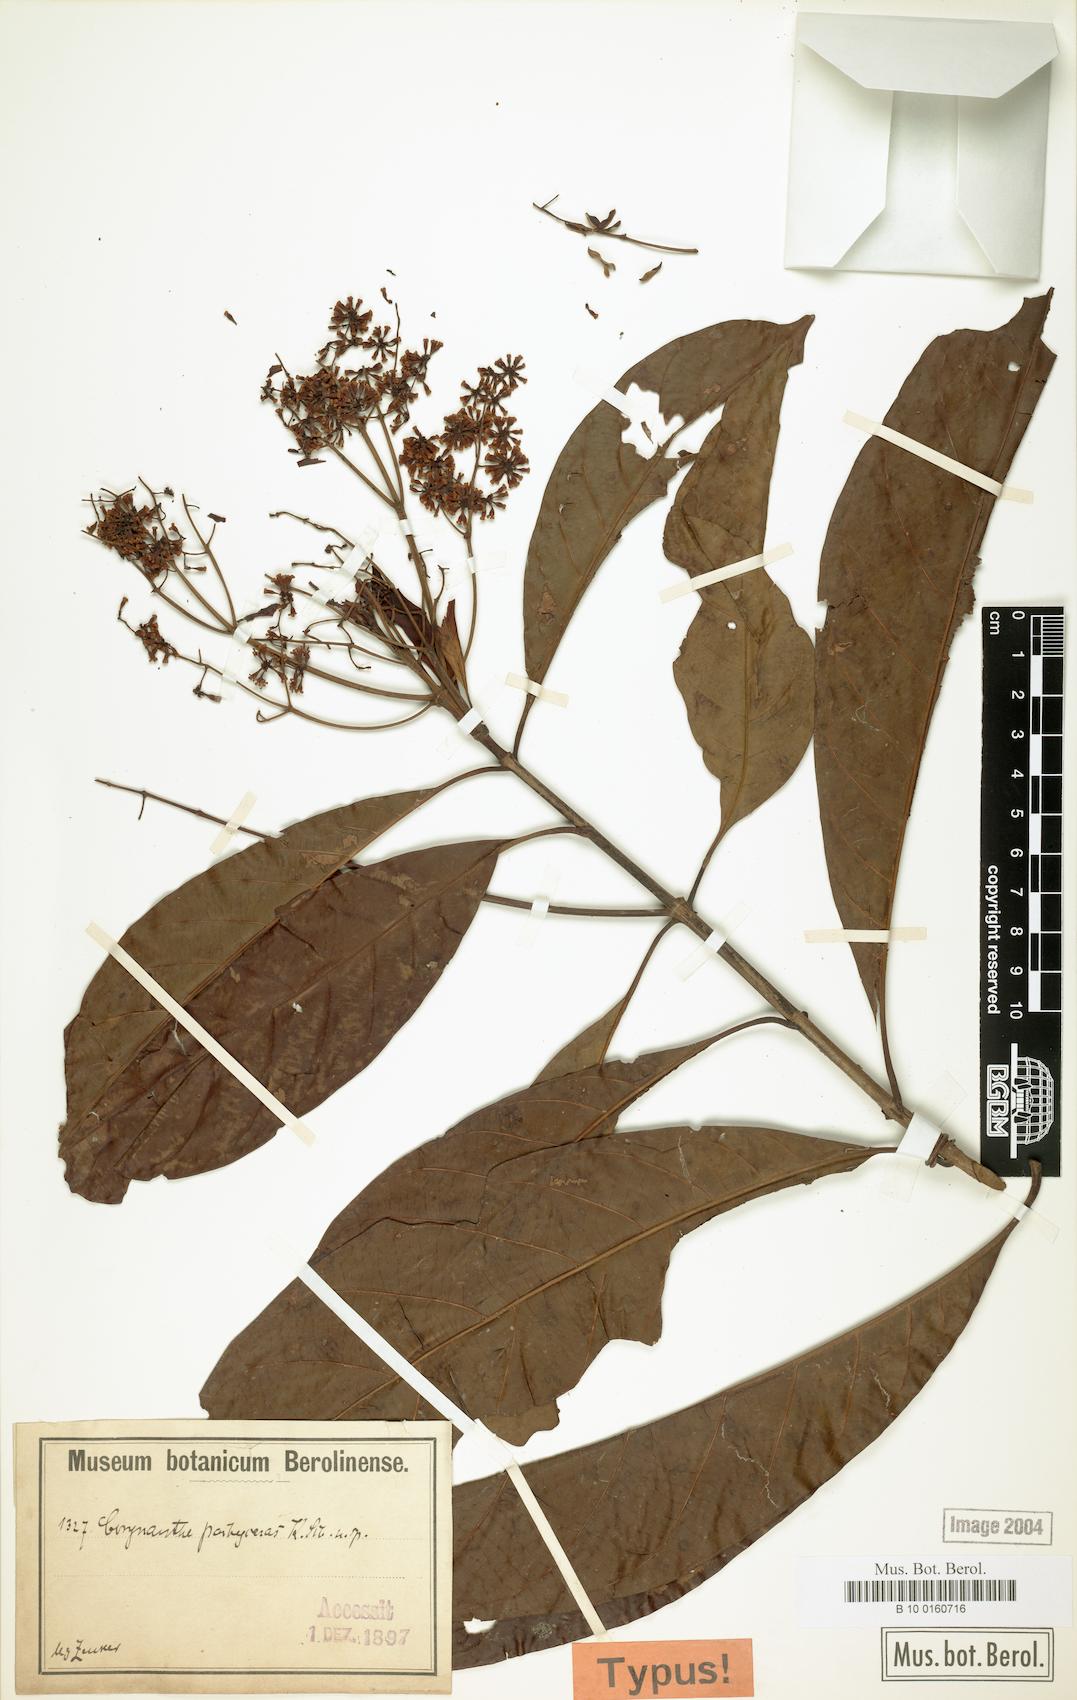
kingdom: Plantae
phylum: Tracheophyta
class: Magnoliopsida
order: Gentianales
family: Rubiaceae
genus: Corynanthe
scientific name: Corynanthe pachyceras
